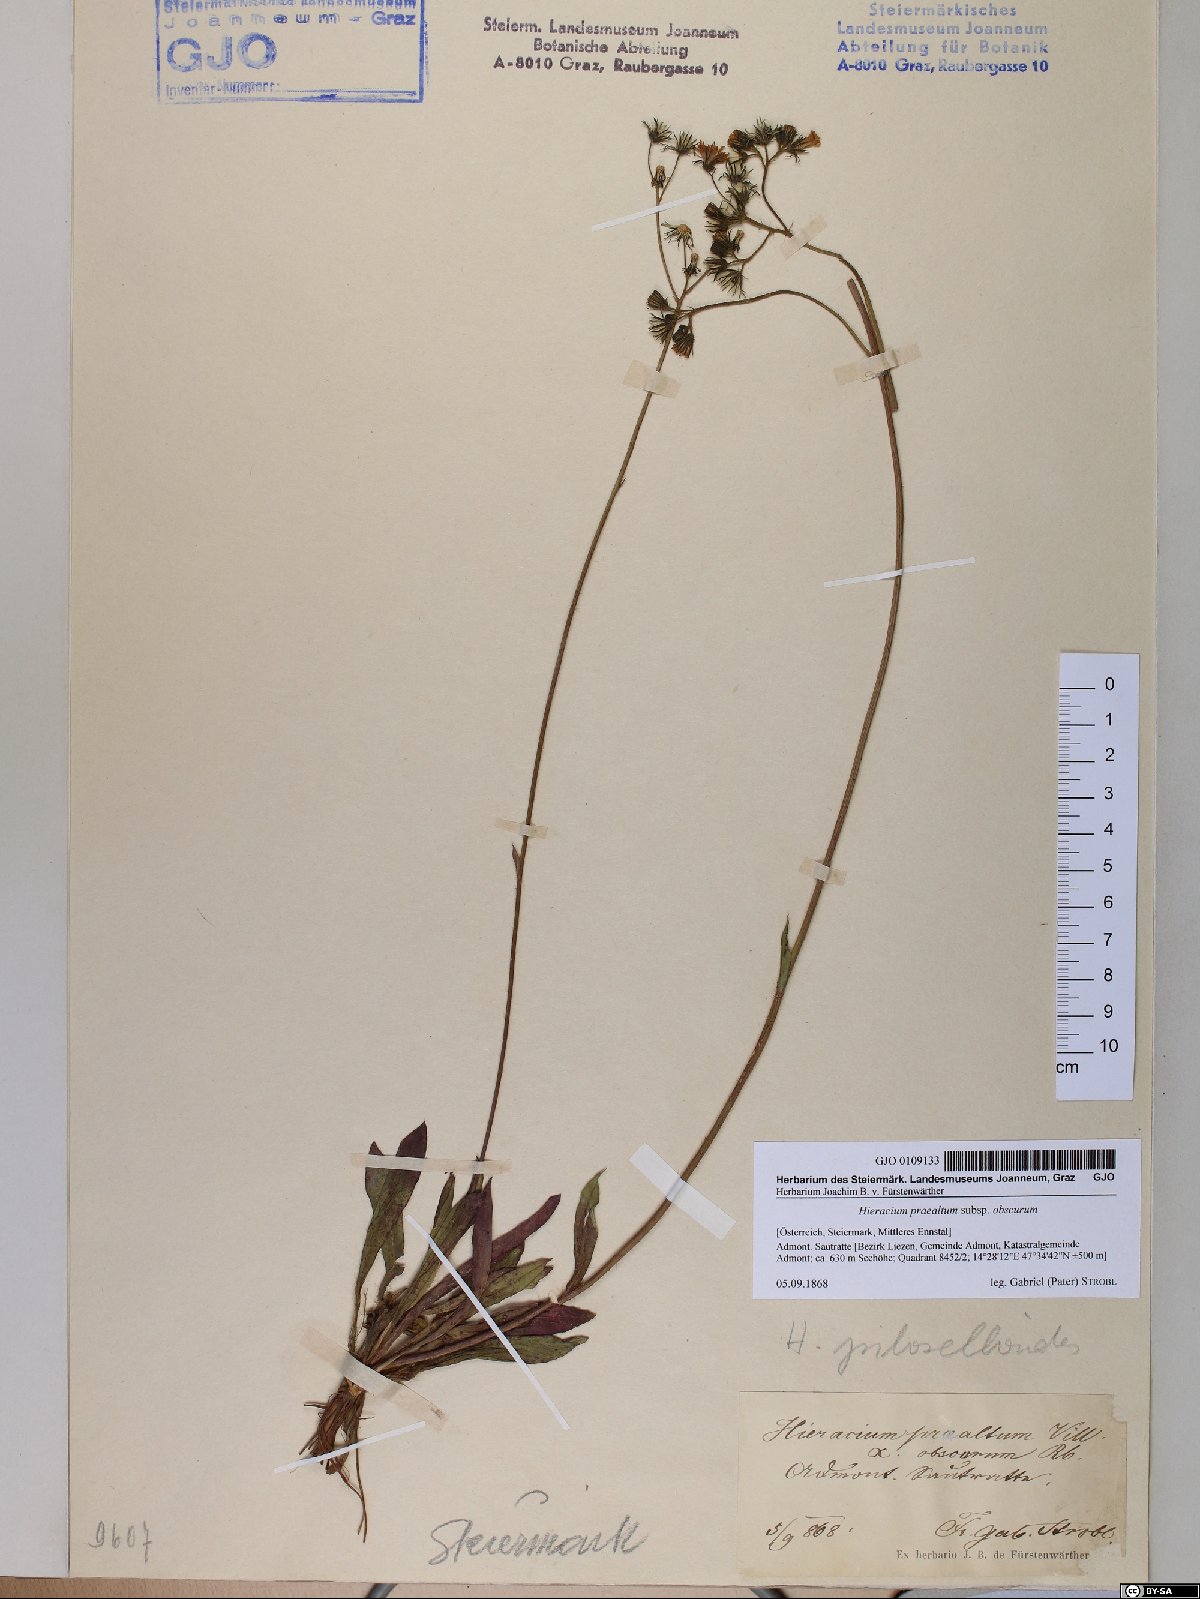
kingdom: Plantae
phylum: Tracheophyta
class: Magnoliopsida
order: Asterales
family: Asteraceae
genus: Pilosella
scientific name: Pilosella piloselloides
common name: Glaucous king-devil
